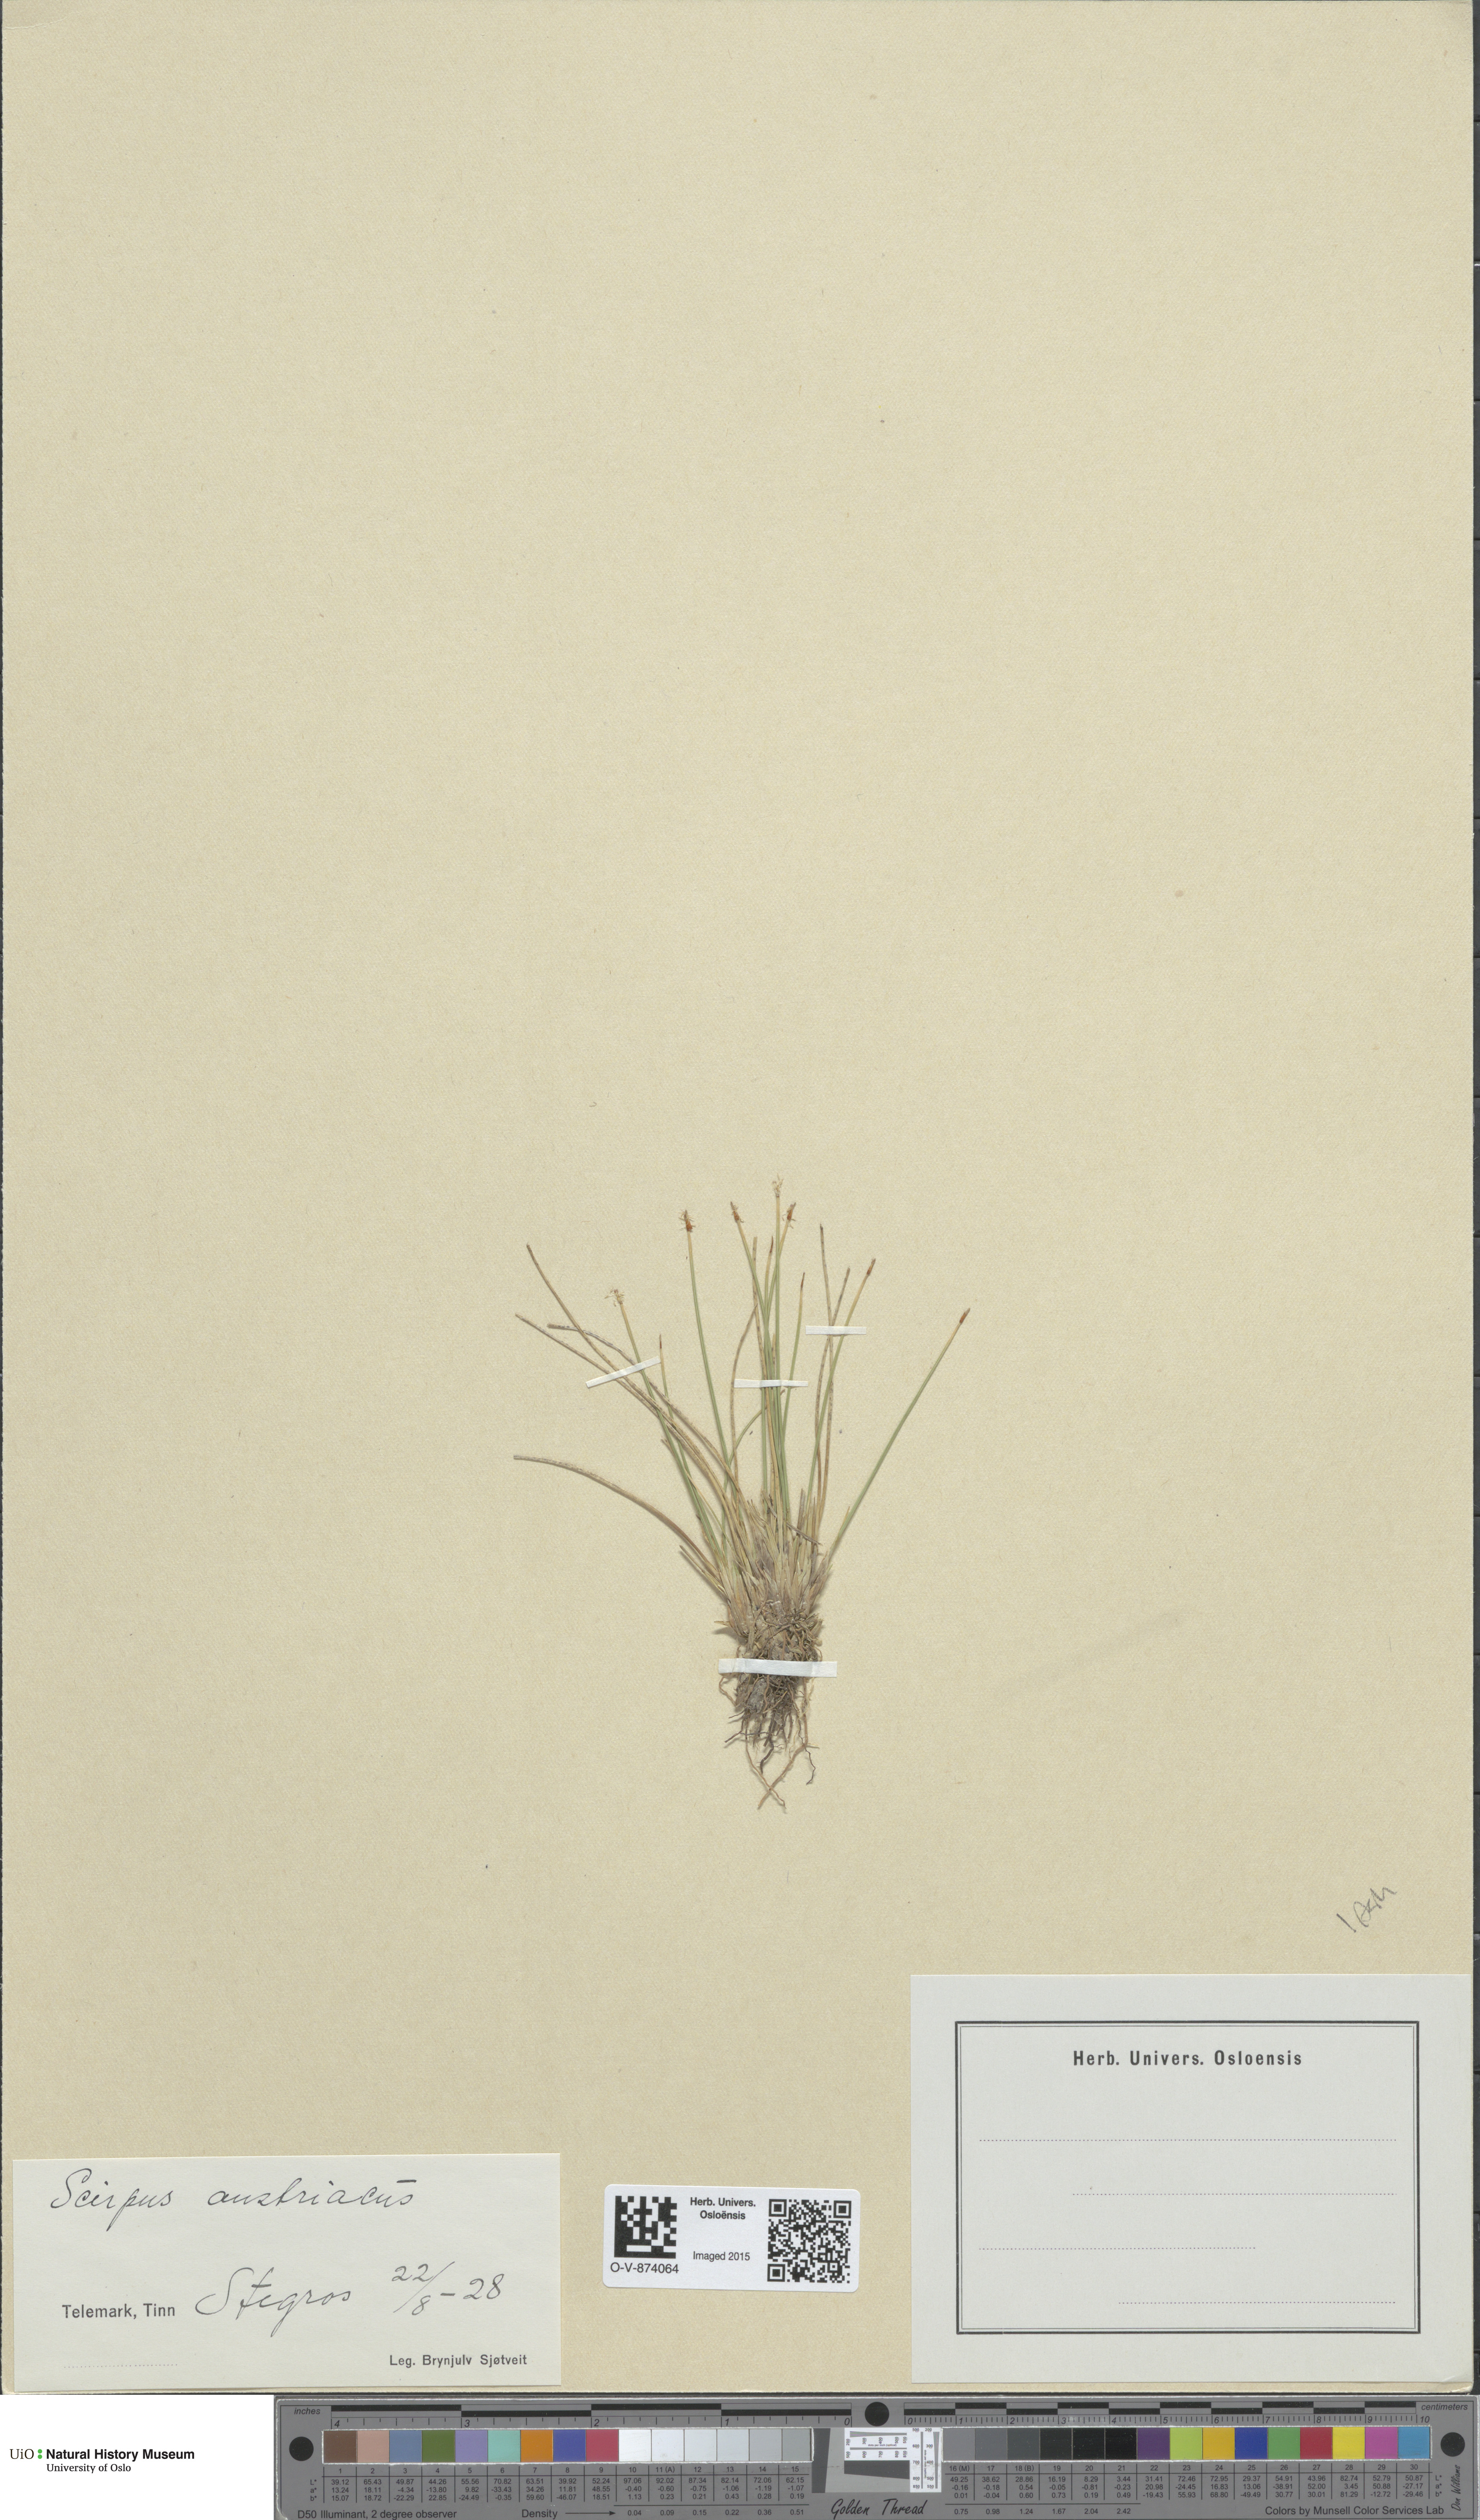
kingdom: Plantae
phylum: Tracheophyta
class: Liliopsida
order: Poales
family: Cyperaceae
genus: Trichophorum
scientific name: Trichophorum cespitosum
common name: Cespitose bulrush
